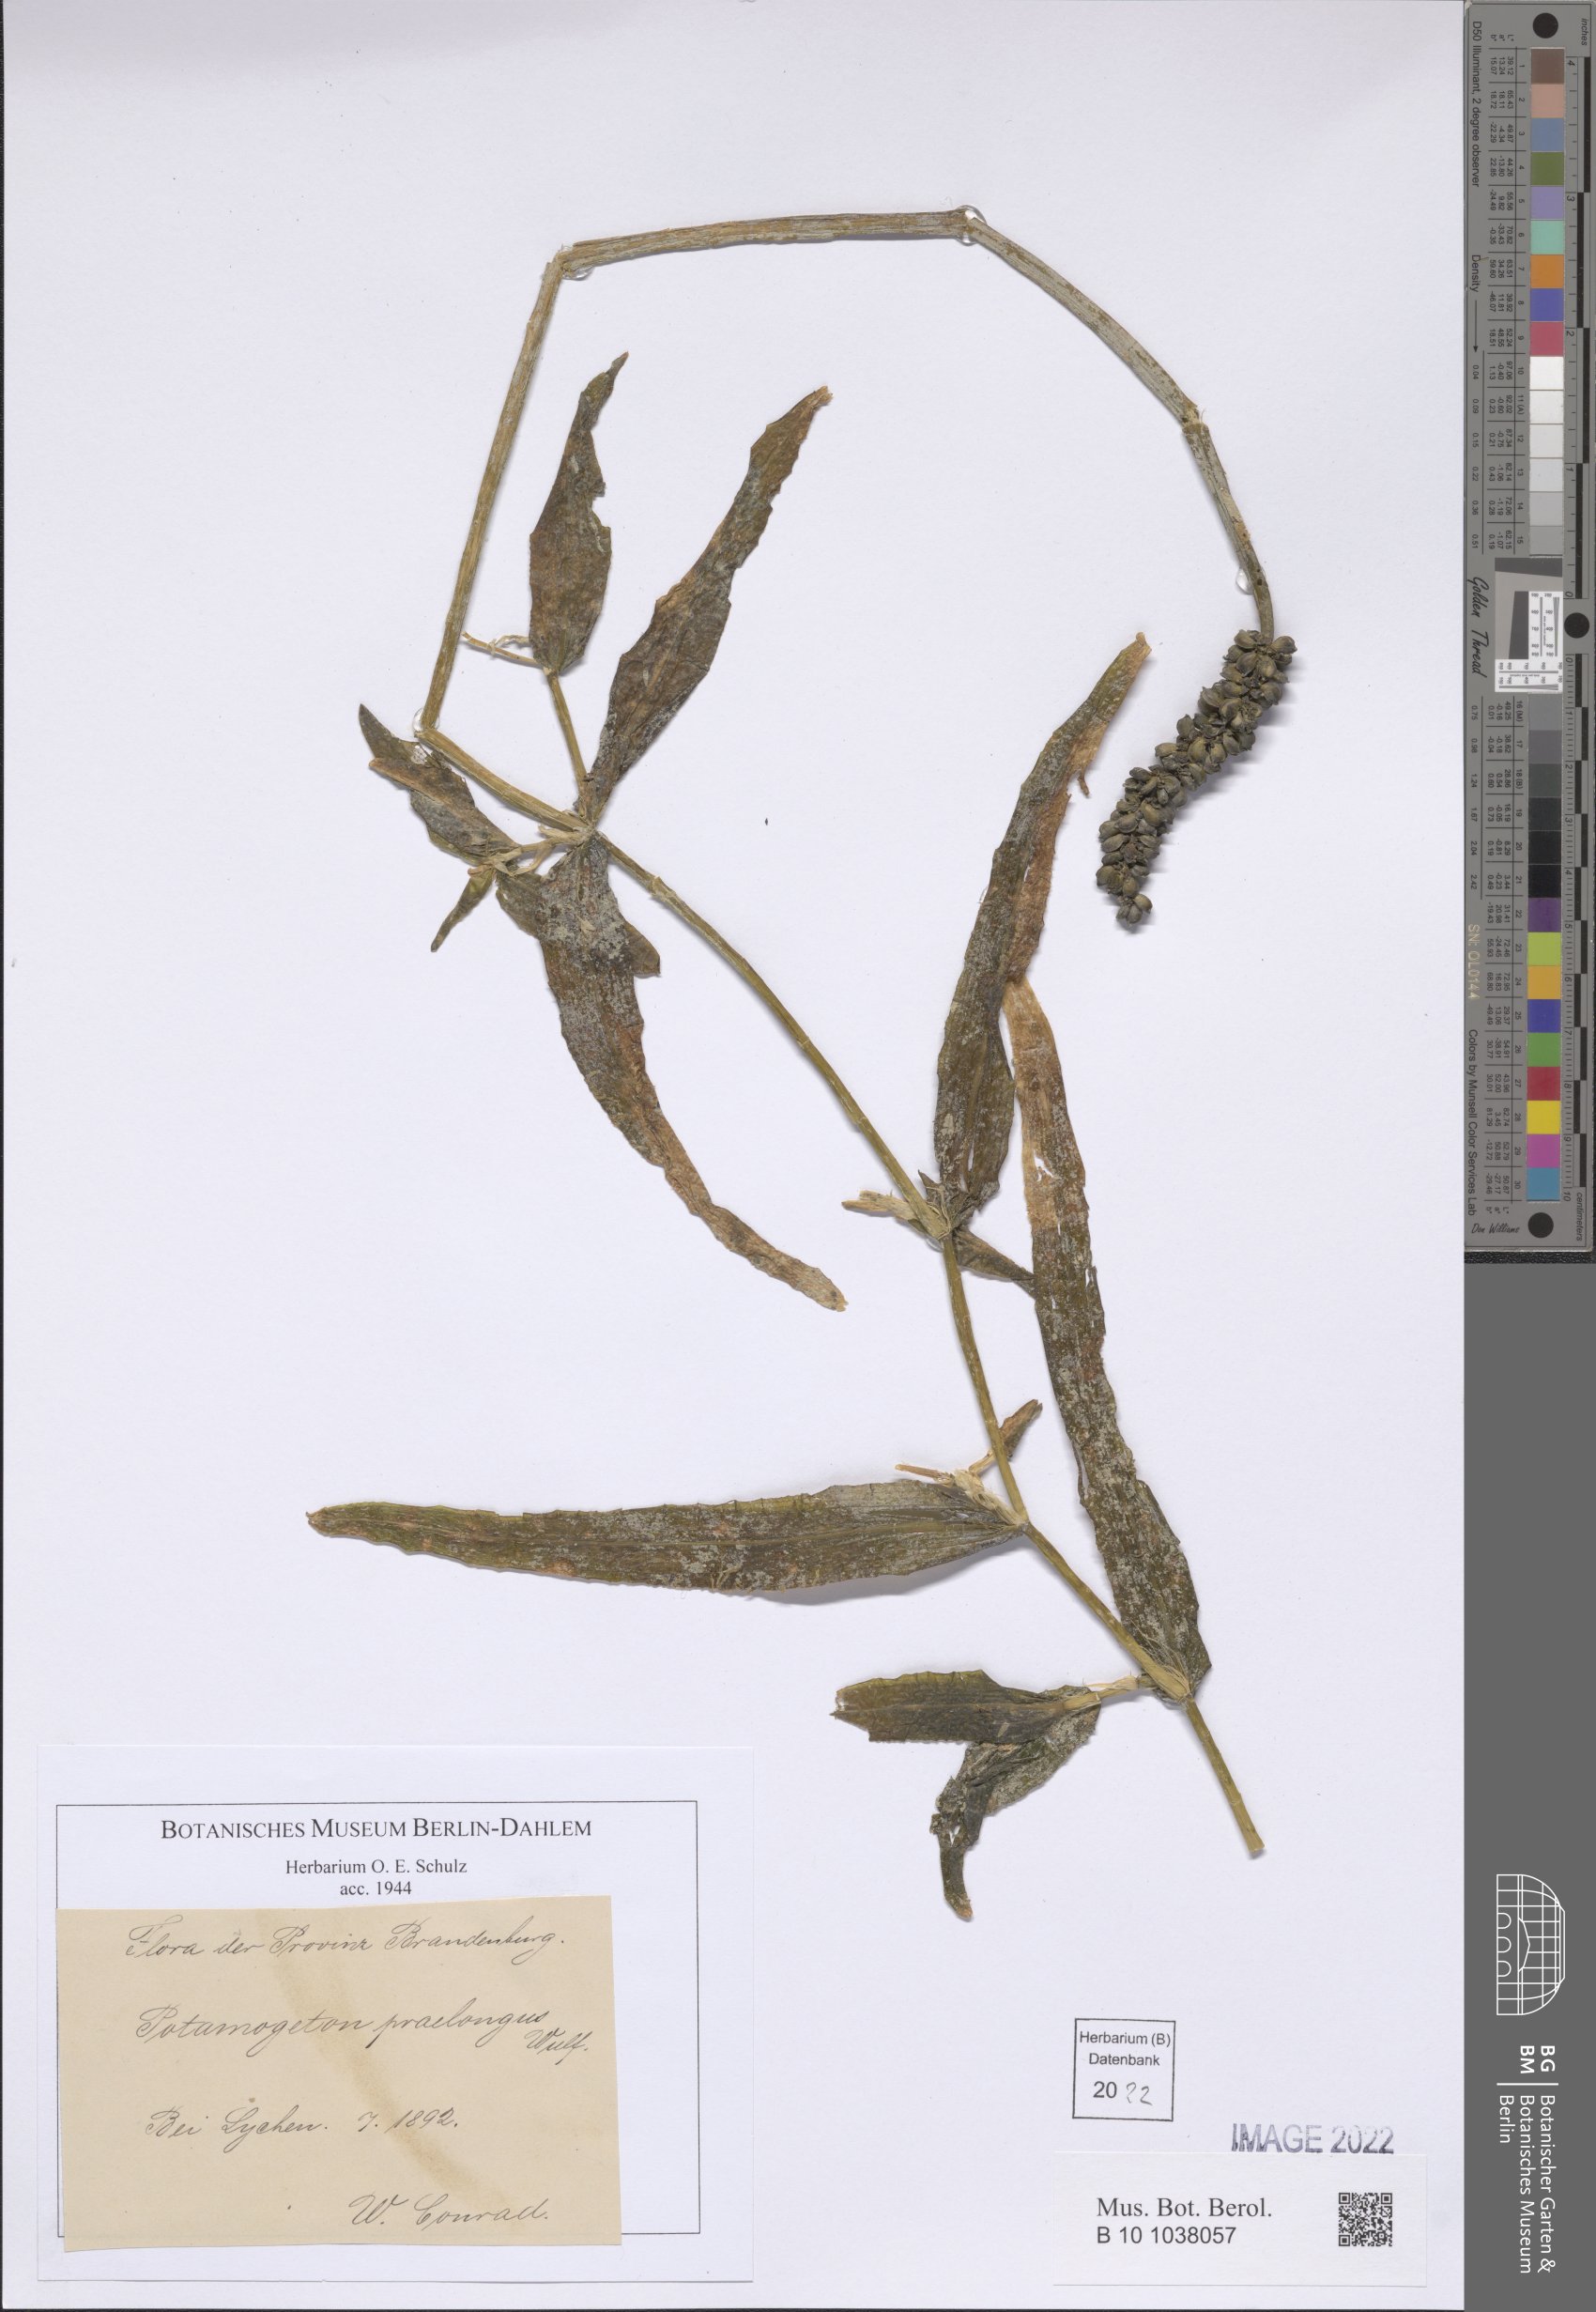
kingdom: Plantae
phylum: Tracheophyta
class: Liliopsida
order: Alismatales
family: Potamogetonaceae
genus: Potamogeton
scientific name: Potamogeton praelongus
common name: Long-stalked pondweed
